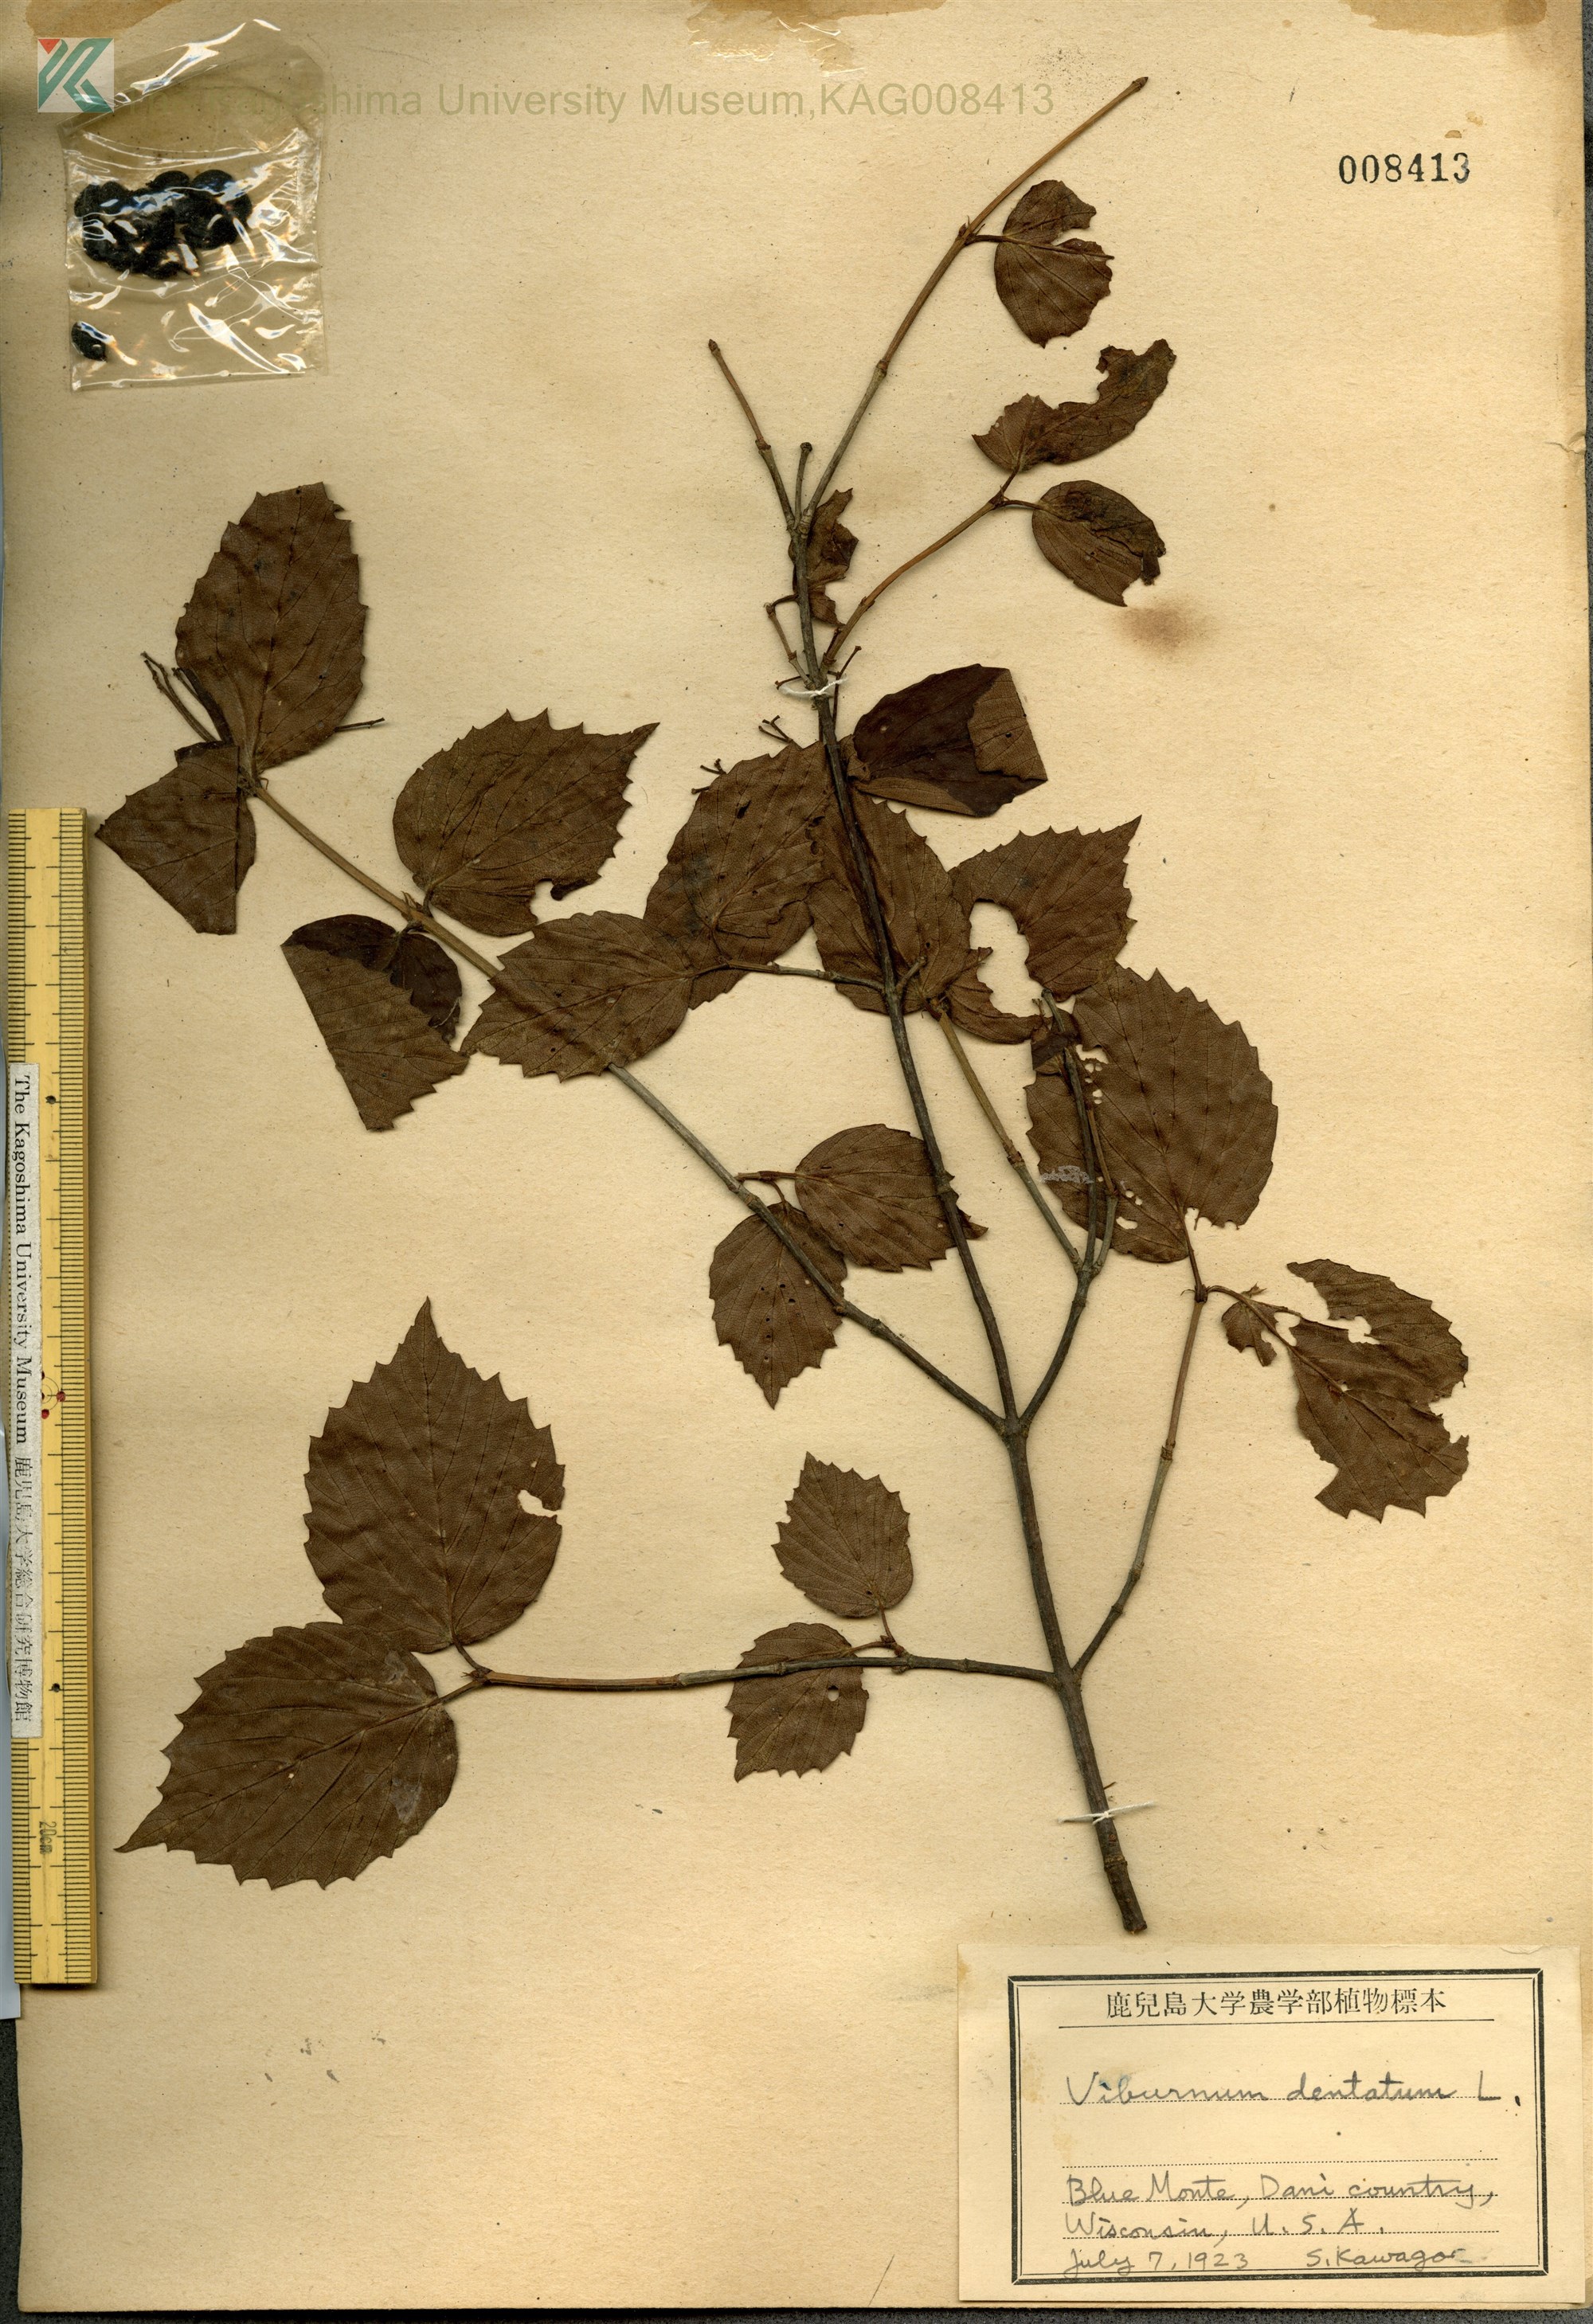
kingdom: Plantae
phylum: Tracheophyta
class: Magnoliopsida
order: Dipsacales
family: Viburnaceae
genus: Viburnum
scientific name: Viburnum dentatum
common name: Arrow-wood
